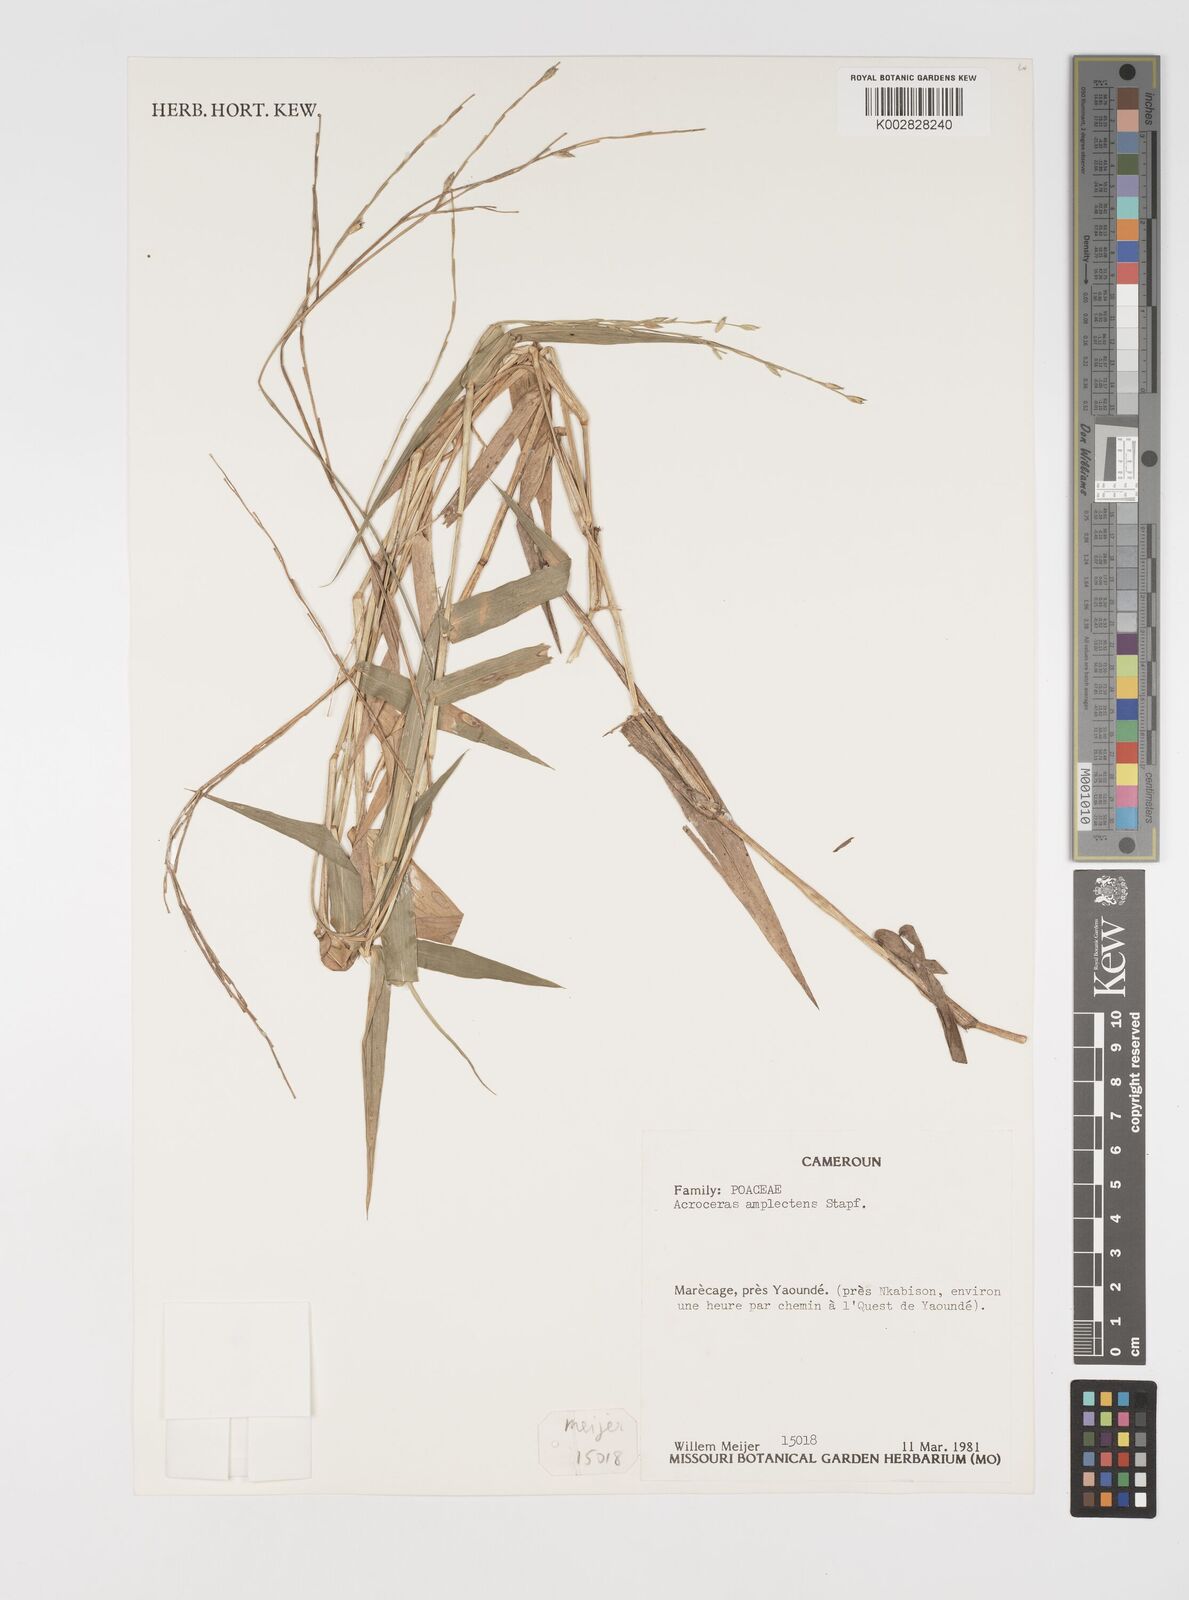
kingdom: Plantae
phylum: Tracheophyta
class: Liliopsida
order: Poales
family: Poaceae
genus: Acroceras
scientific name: Acroceras amplectens
